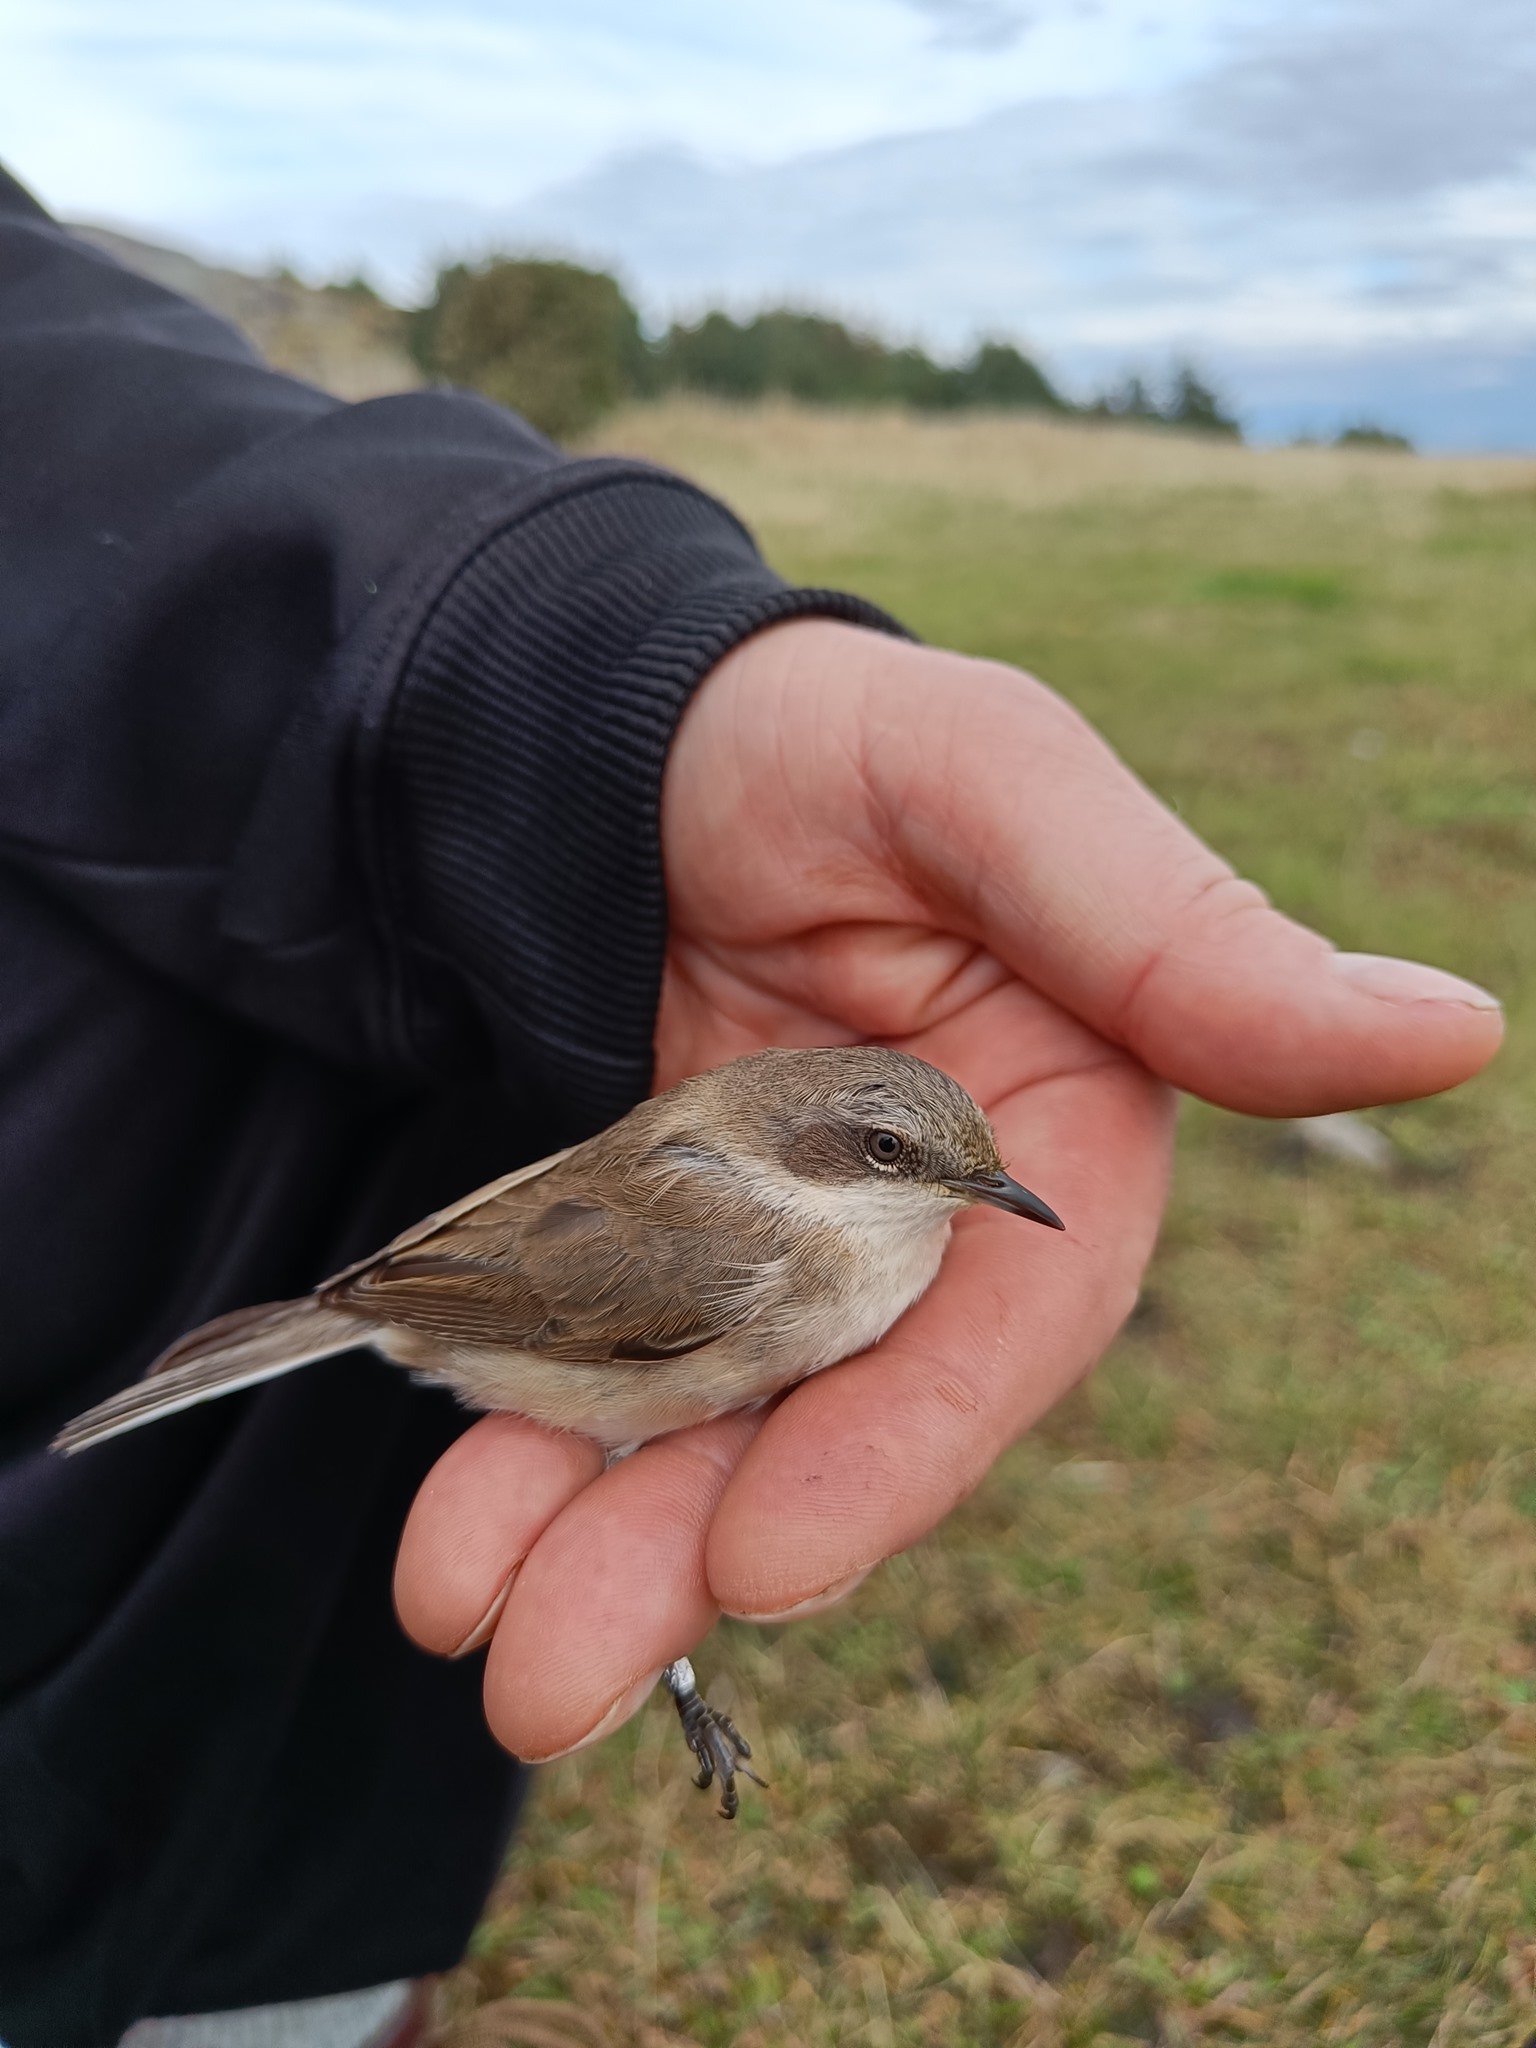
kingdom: Animalia
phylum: Chordata
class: Aves
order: Passeriformes
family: Sylviidae
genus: Sylvia
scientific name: Sylvia curruca
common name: Lesser whitethroat
